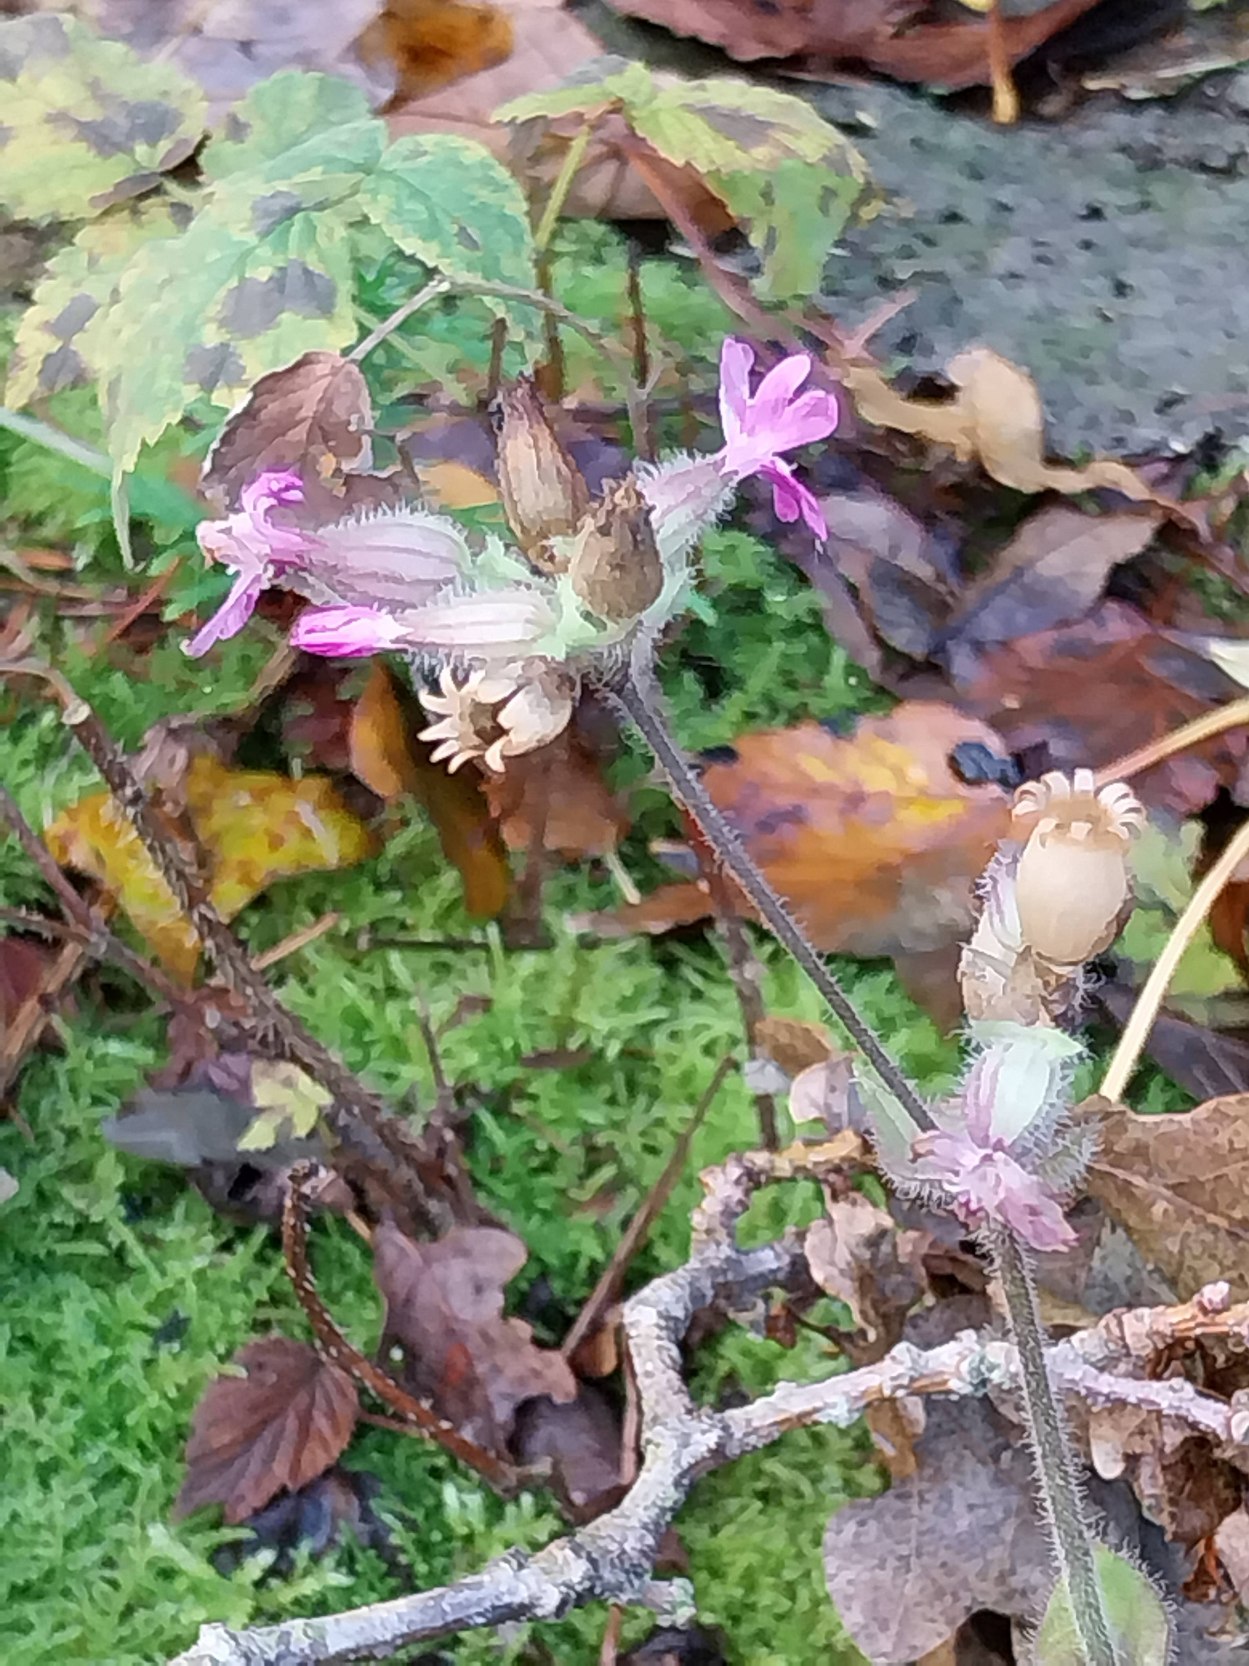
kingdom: Plantae
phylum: Tracheophyta
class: Magnoliopsida
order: Caryophyllales
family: Caryophyllaceae
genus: Silene
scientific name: Silene dioica
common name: Dagpragtstjerne
